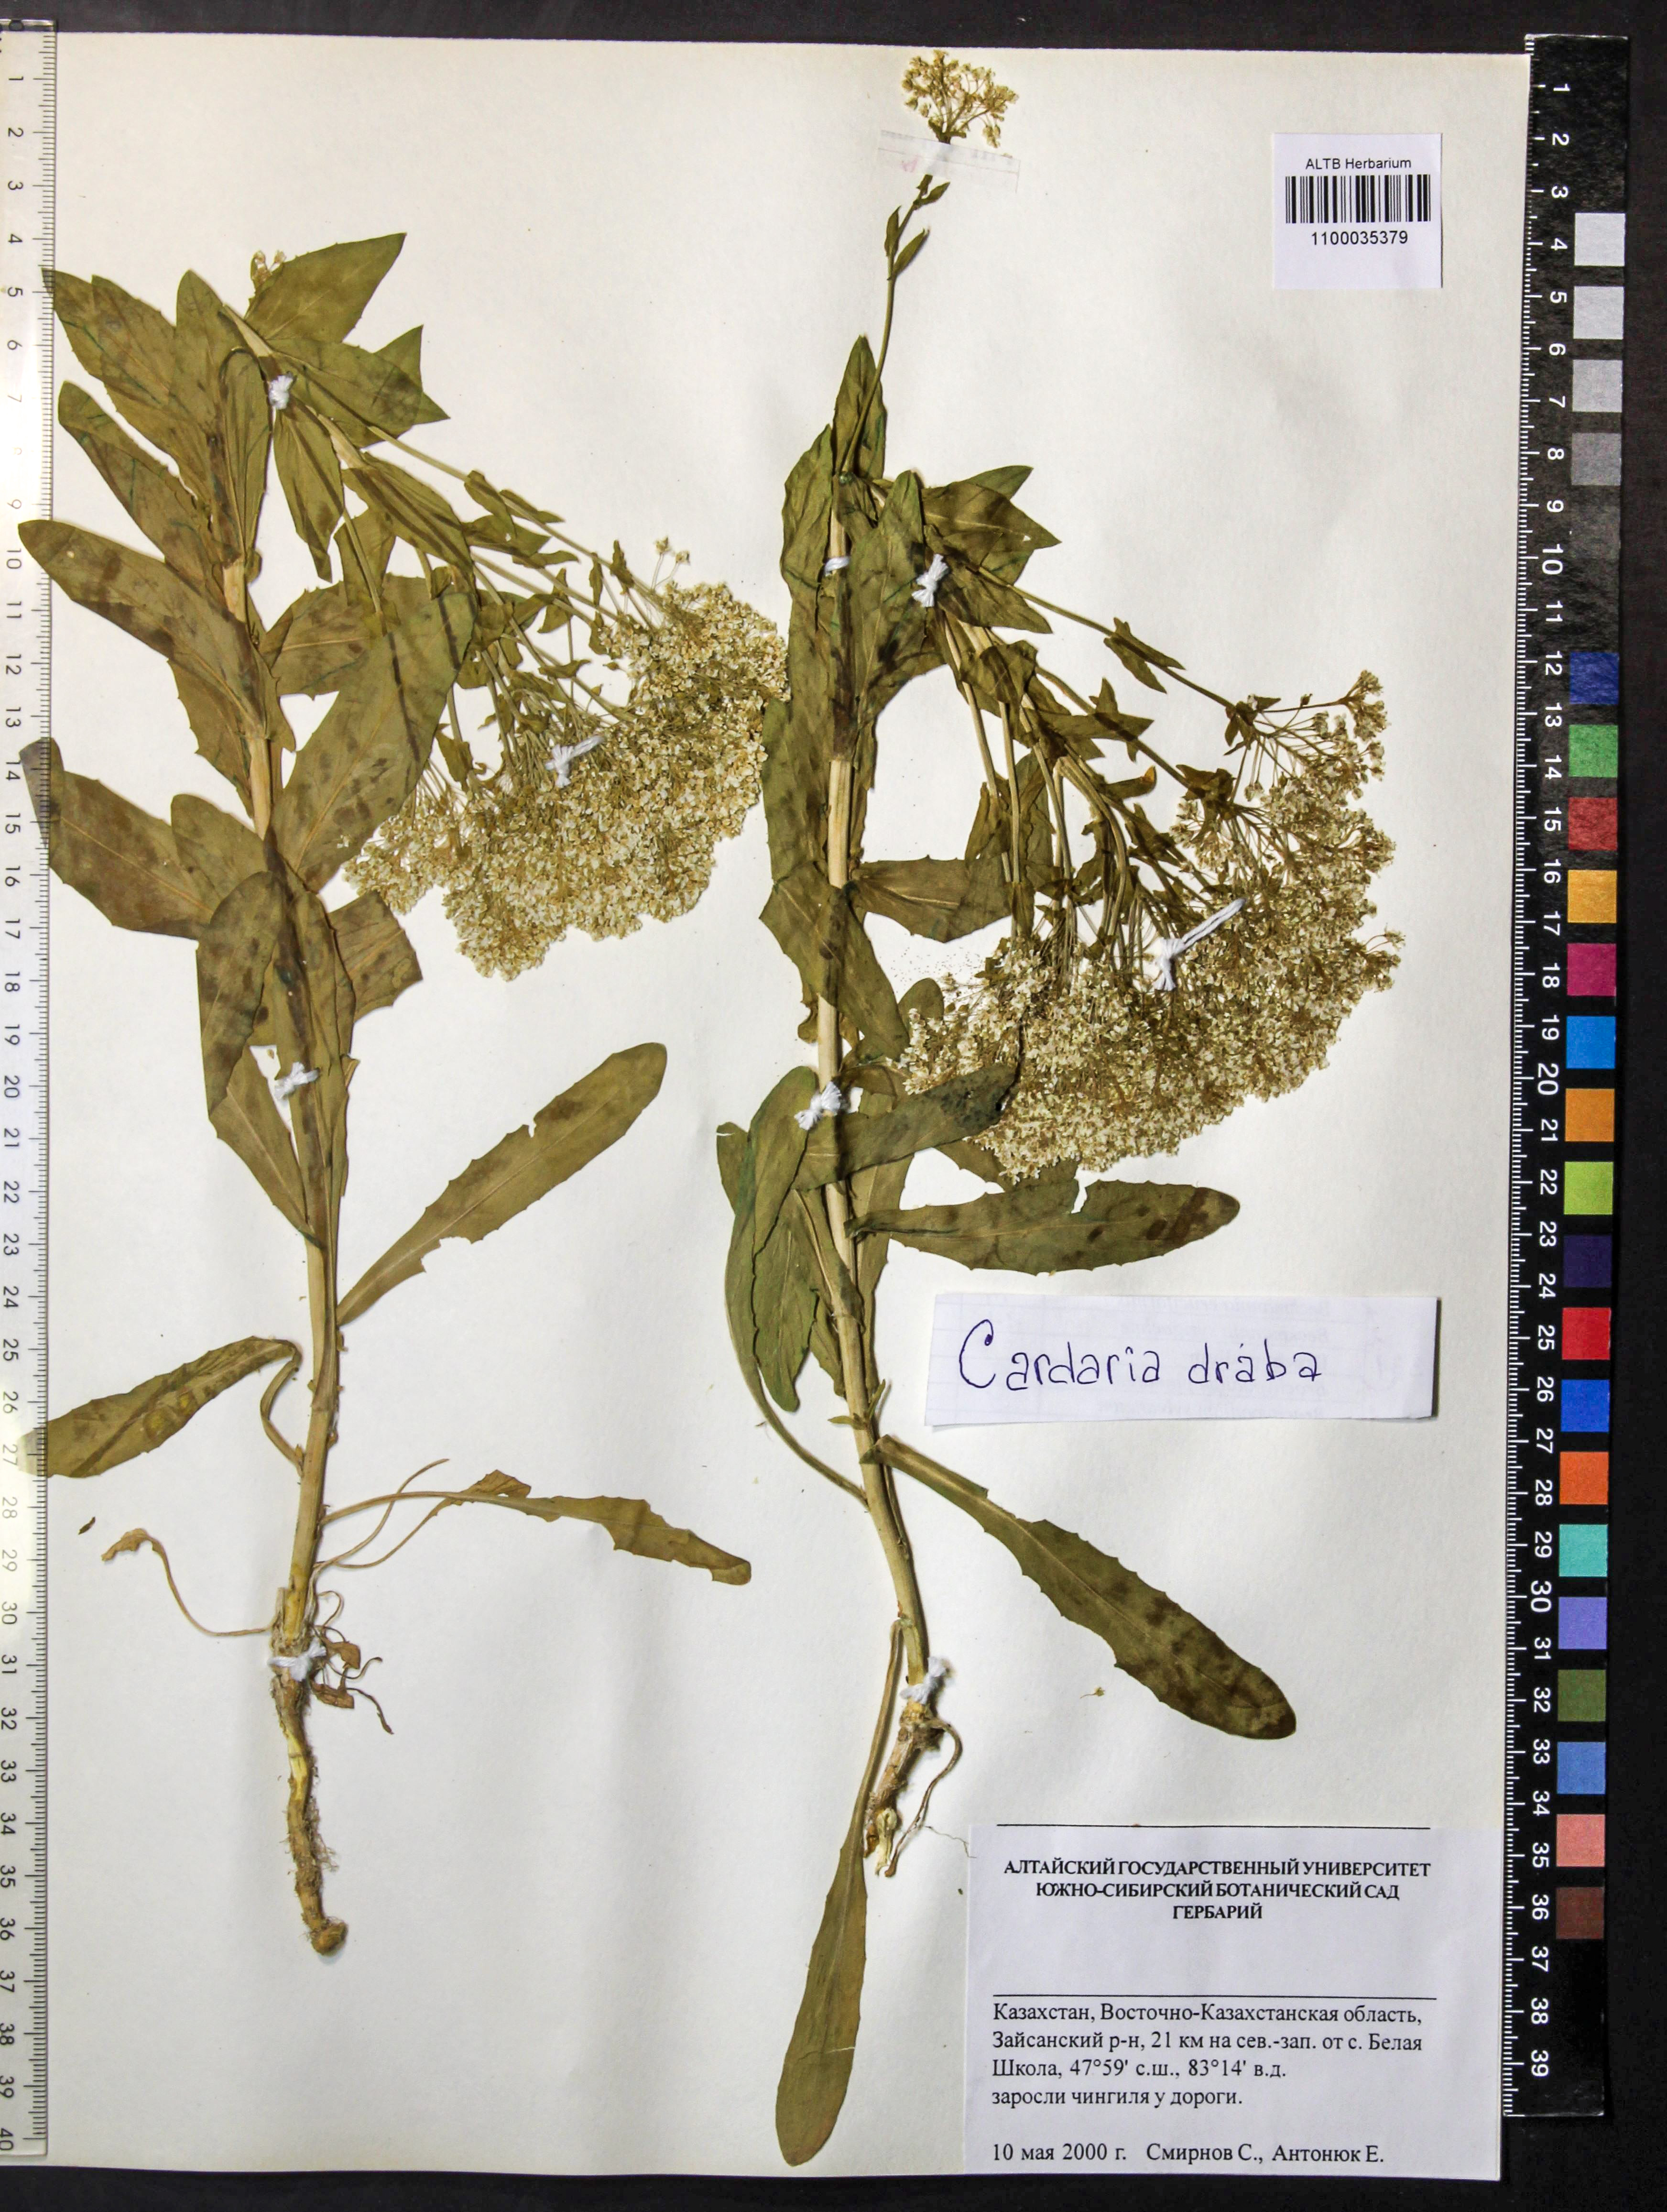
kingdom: Plantae
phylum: Tracheophyta
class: Magnoliopsida
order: Brassicales
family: Brassicaceae
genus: Lepidium
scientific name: Lepidium draba
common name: Hoary cress
